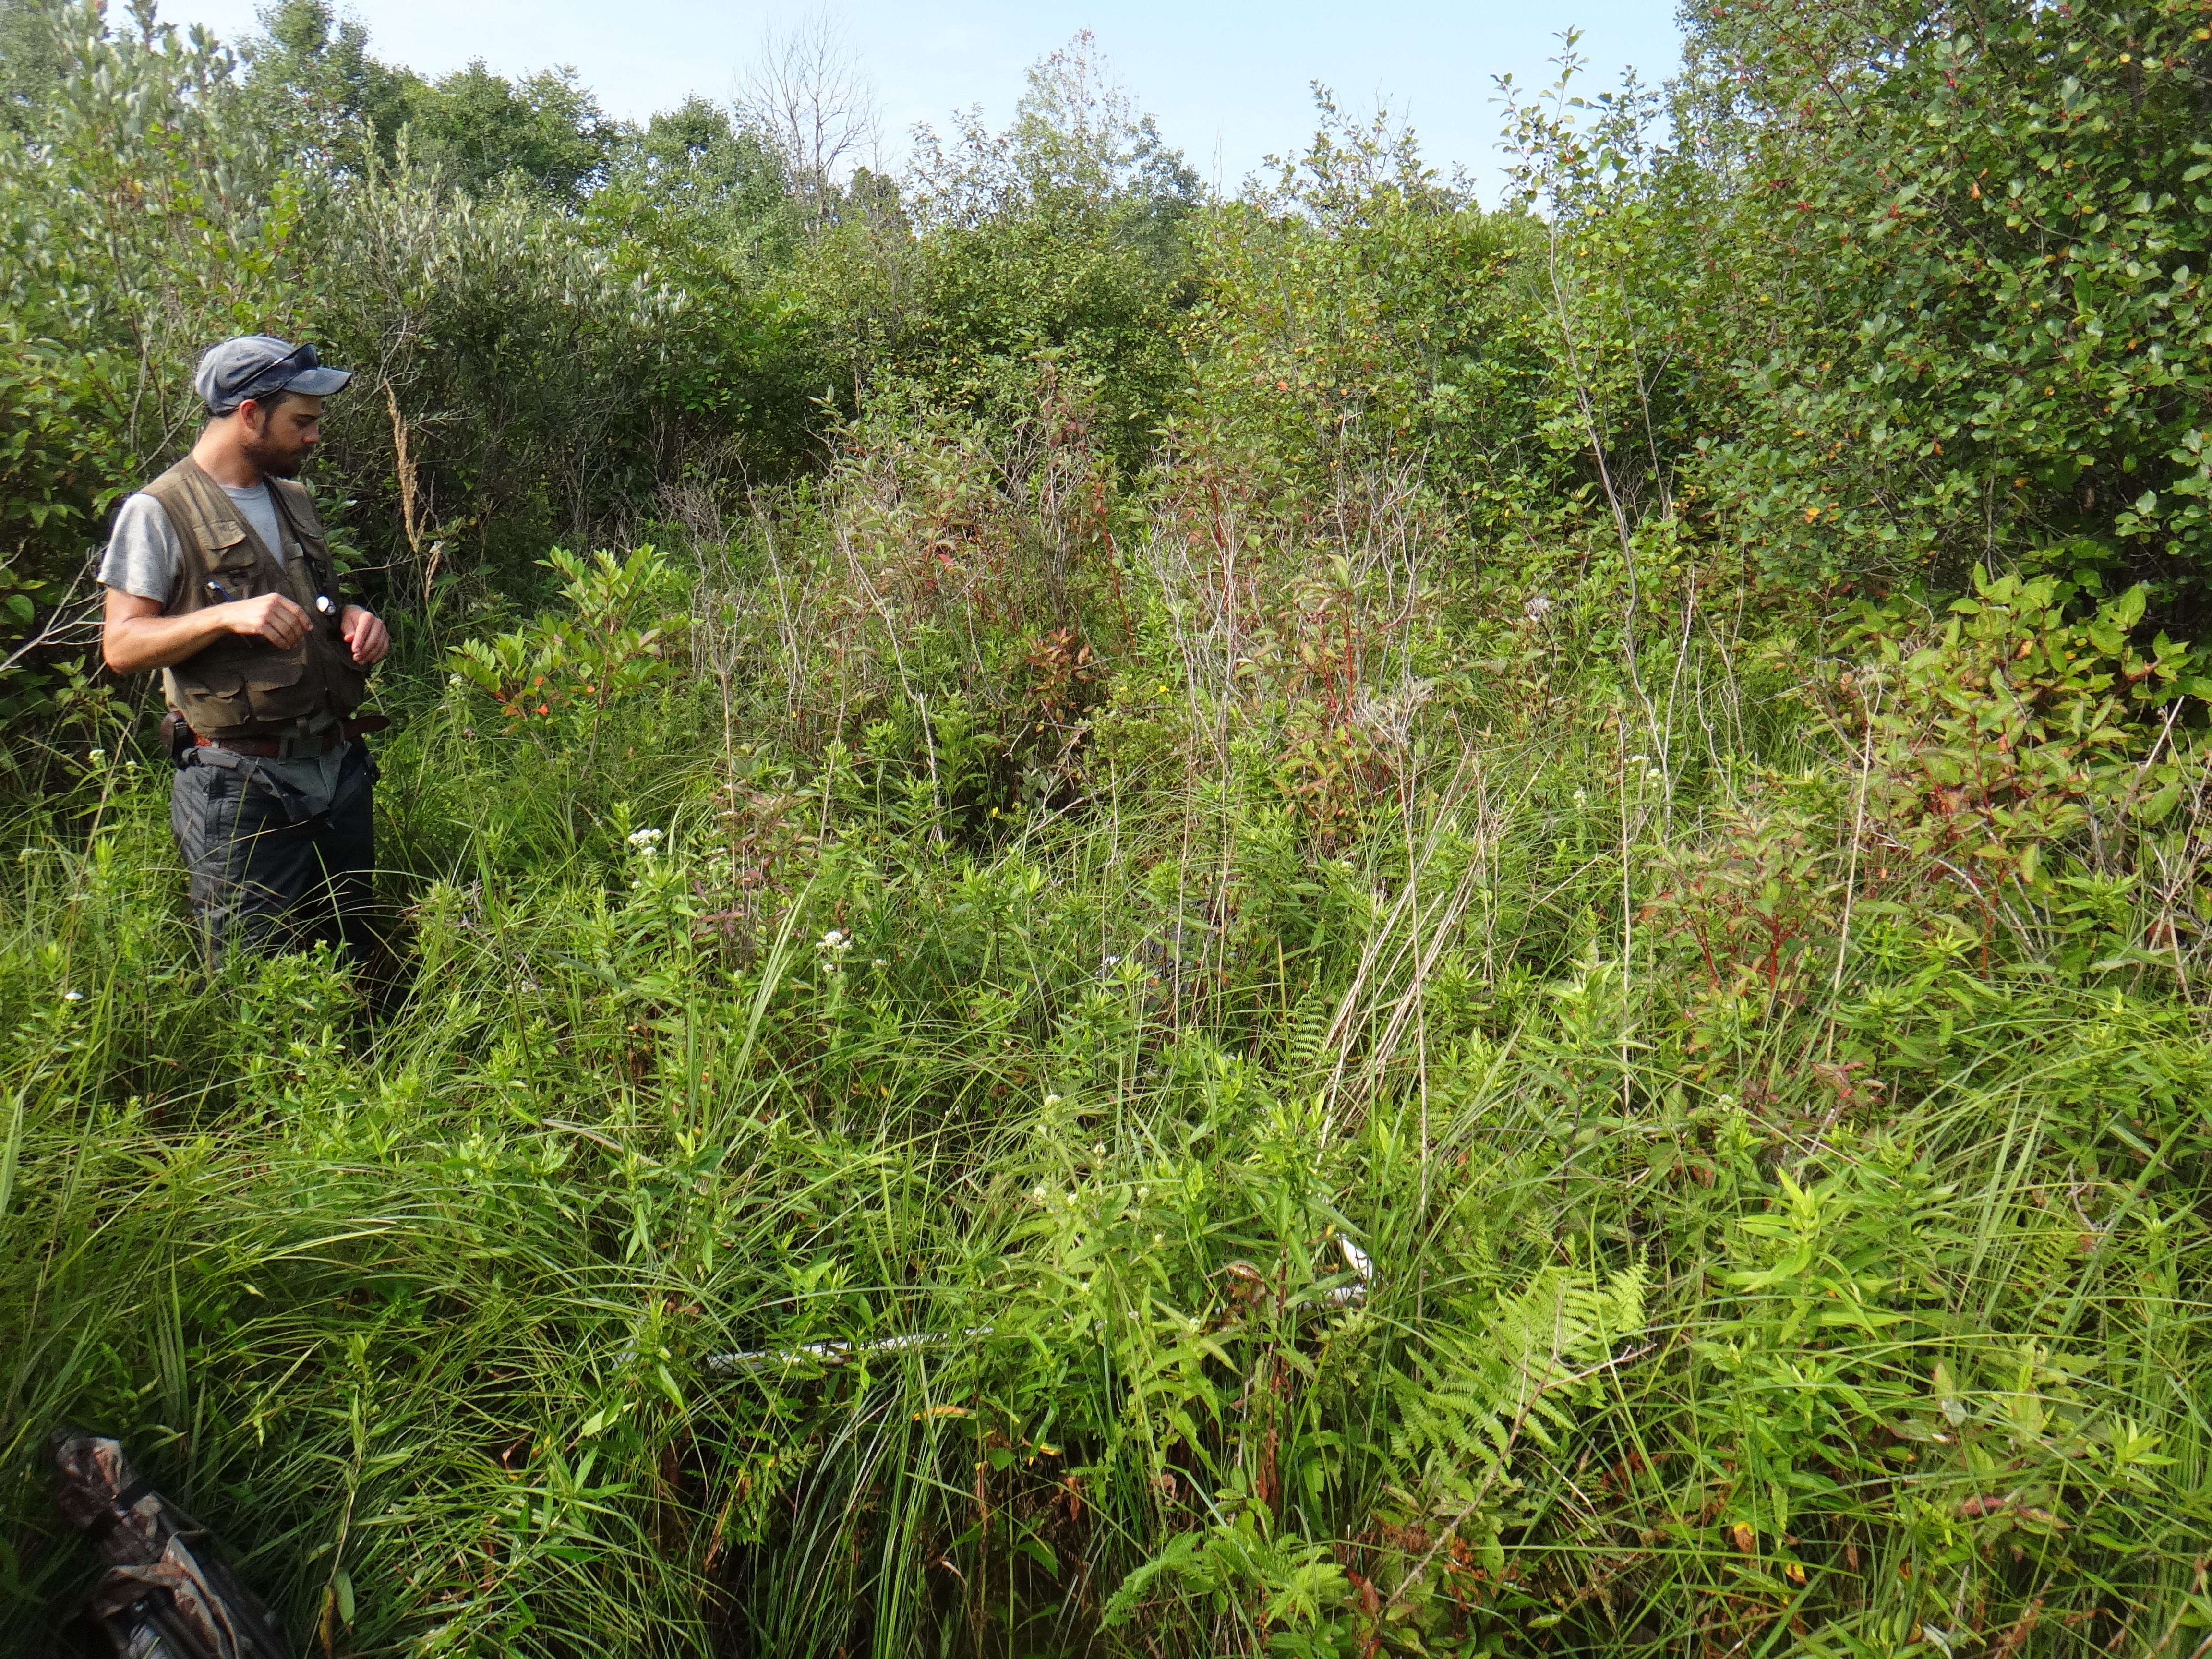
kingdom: Plantae
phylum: Tracheophyta
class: Magnoliopsida
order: Lamiales
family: Lamiaceae
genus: Lycopus
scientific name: Lycopus uniflorus
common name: Northern bugleweed
